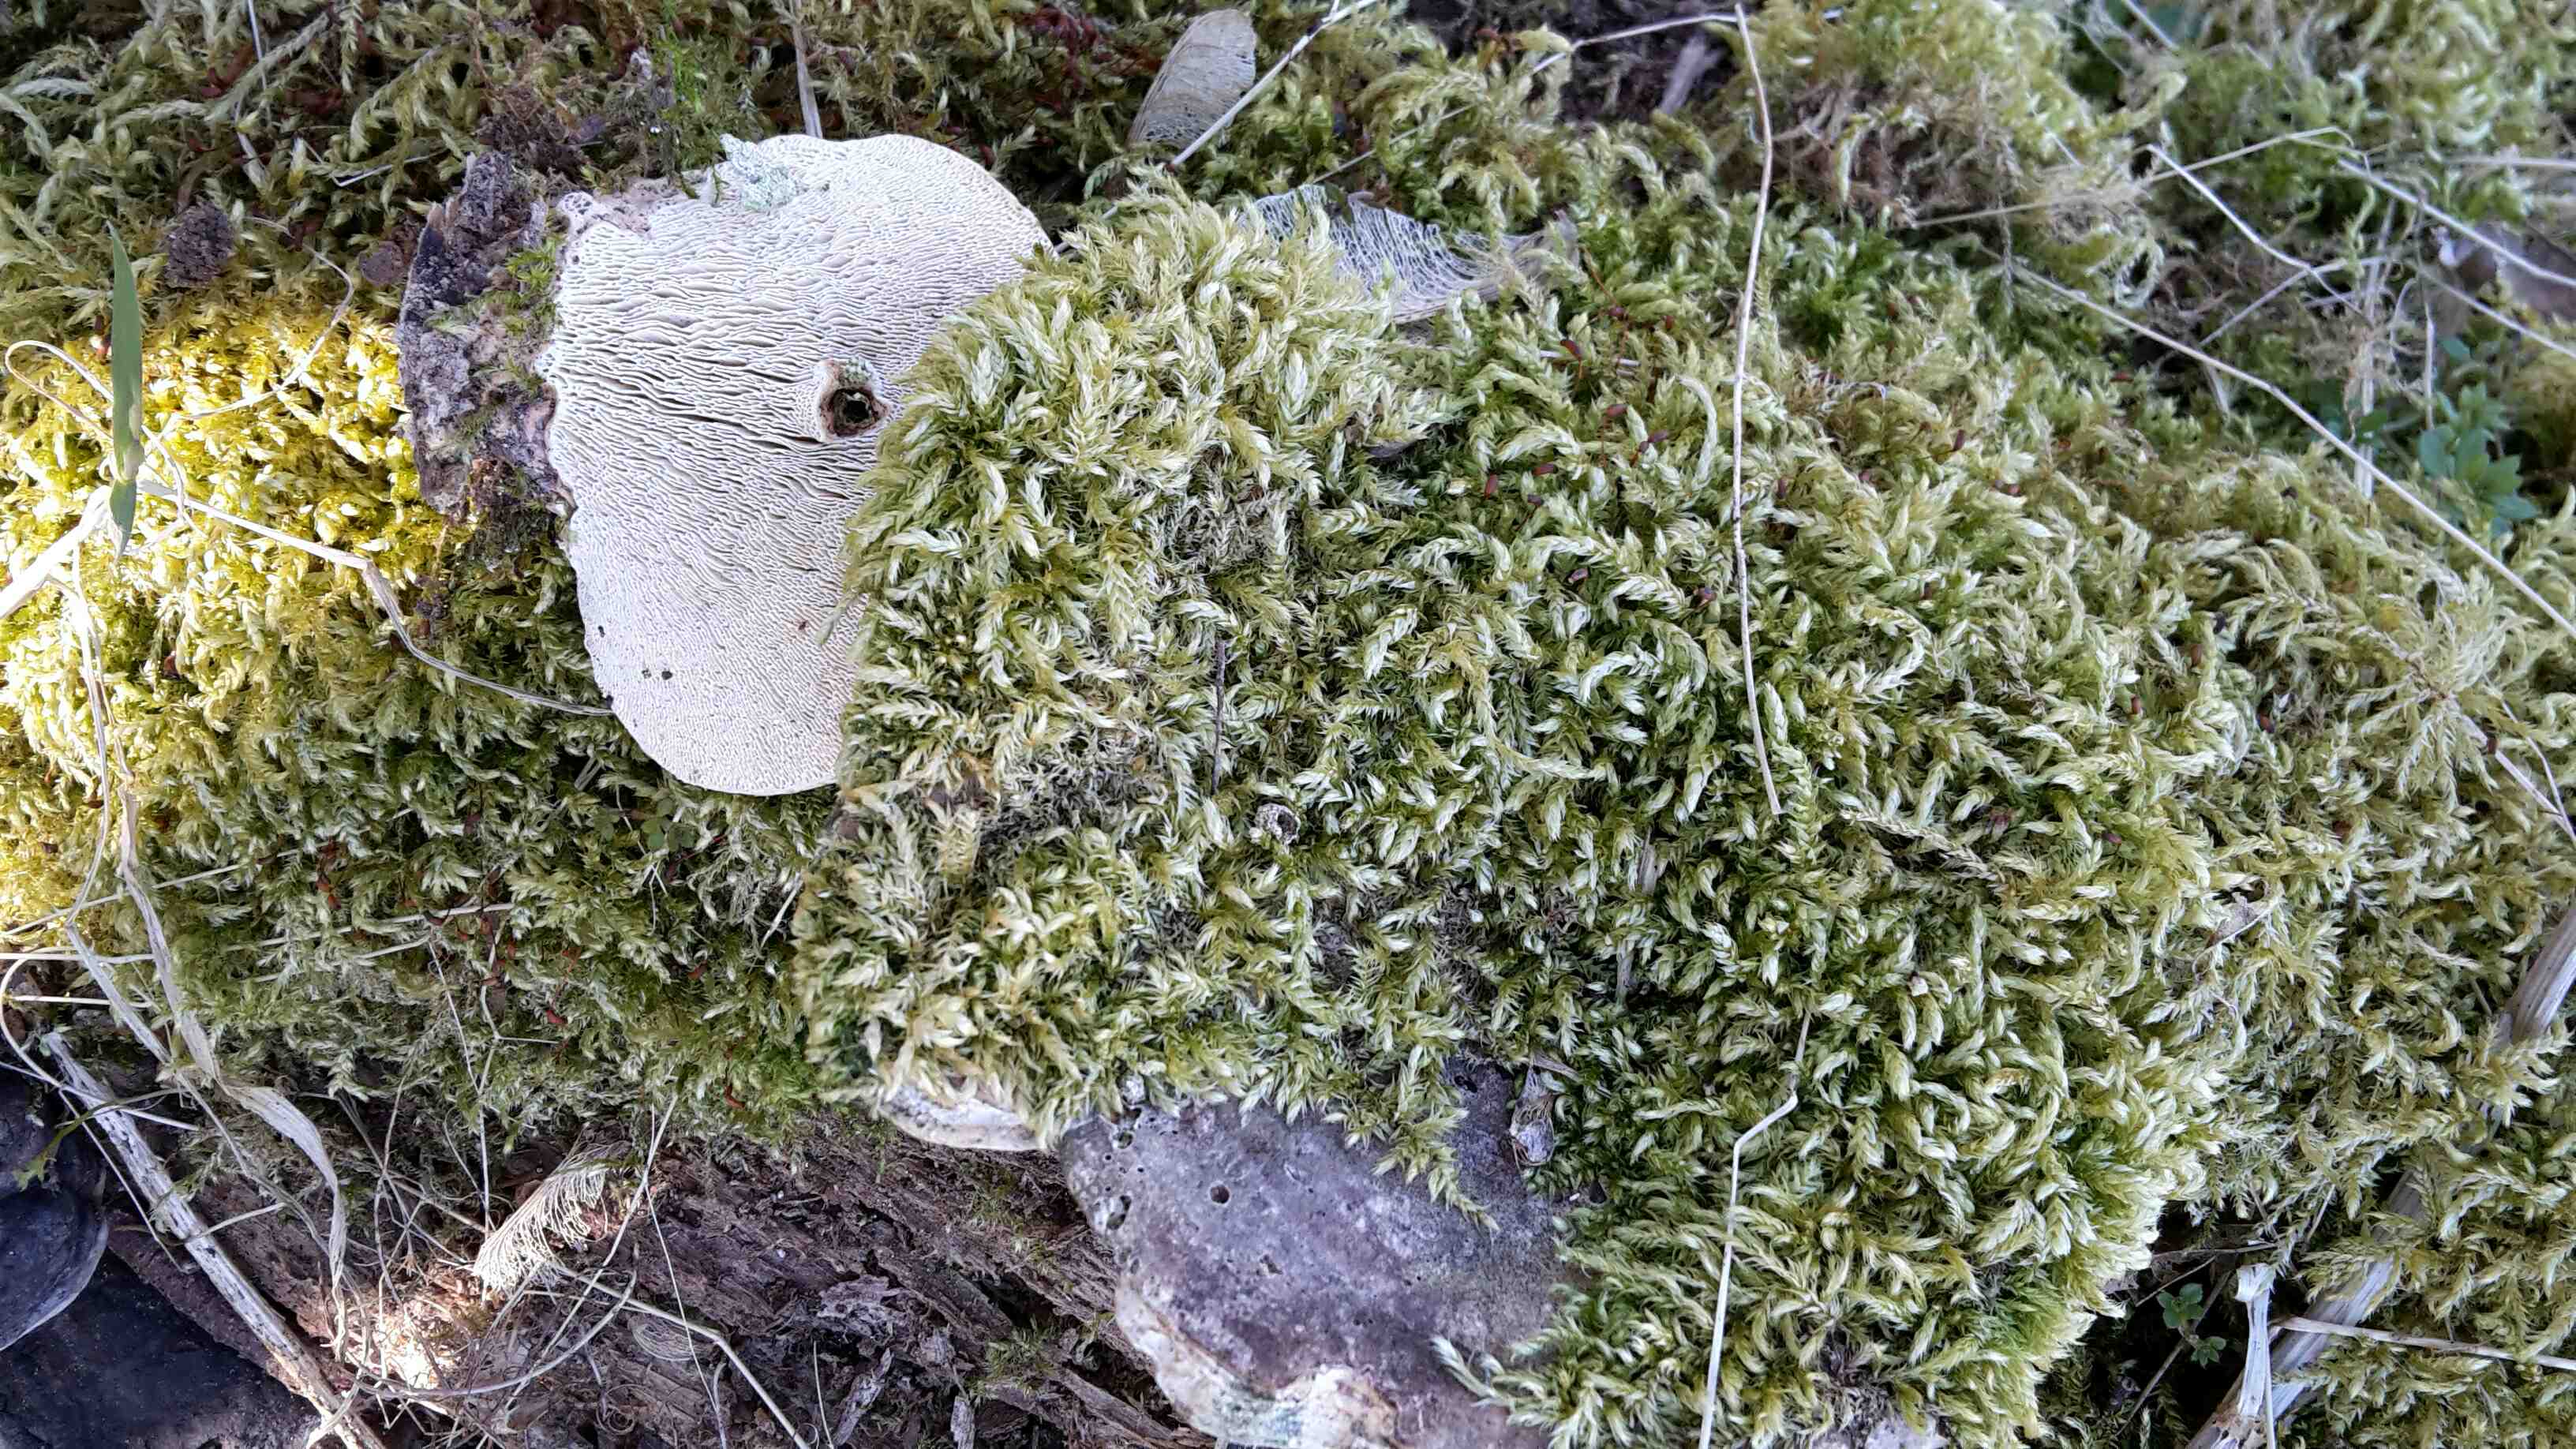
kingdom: Fungi
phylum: Basidiomycota
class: Agaricomycetes
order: Polyporales
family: Polyporaceae
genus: Trametes
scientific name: Trametes gibbosa
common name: puklet læderporesvamp
